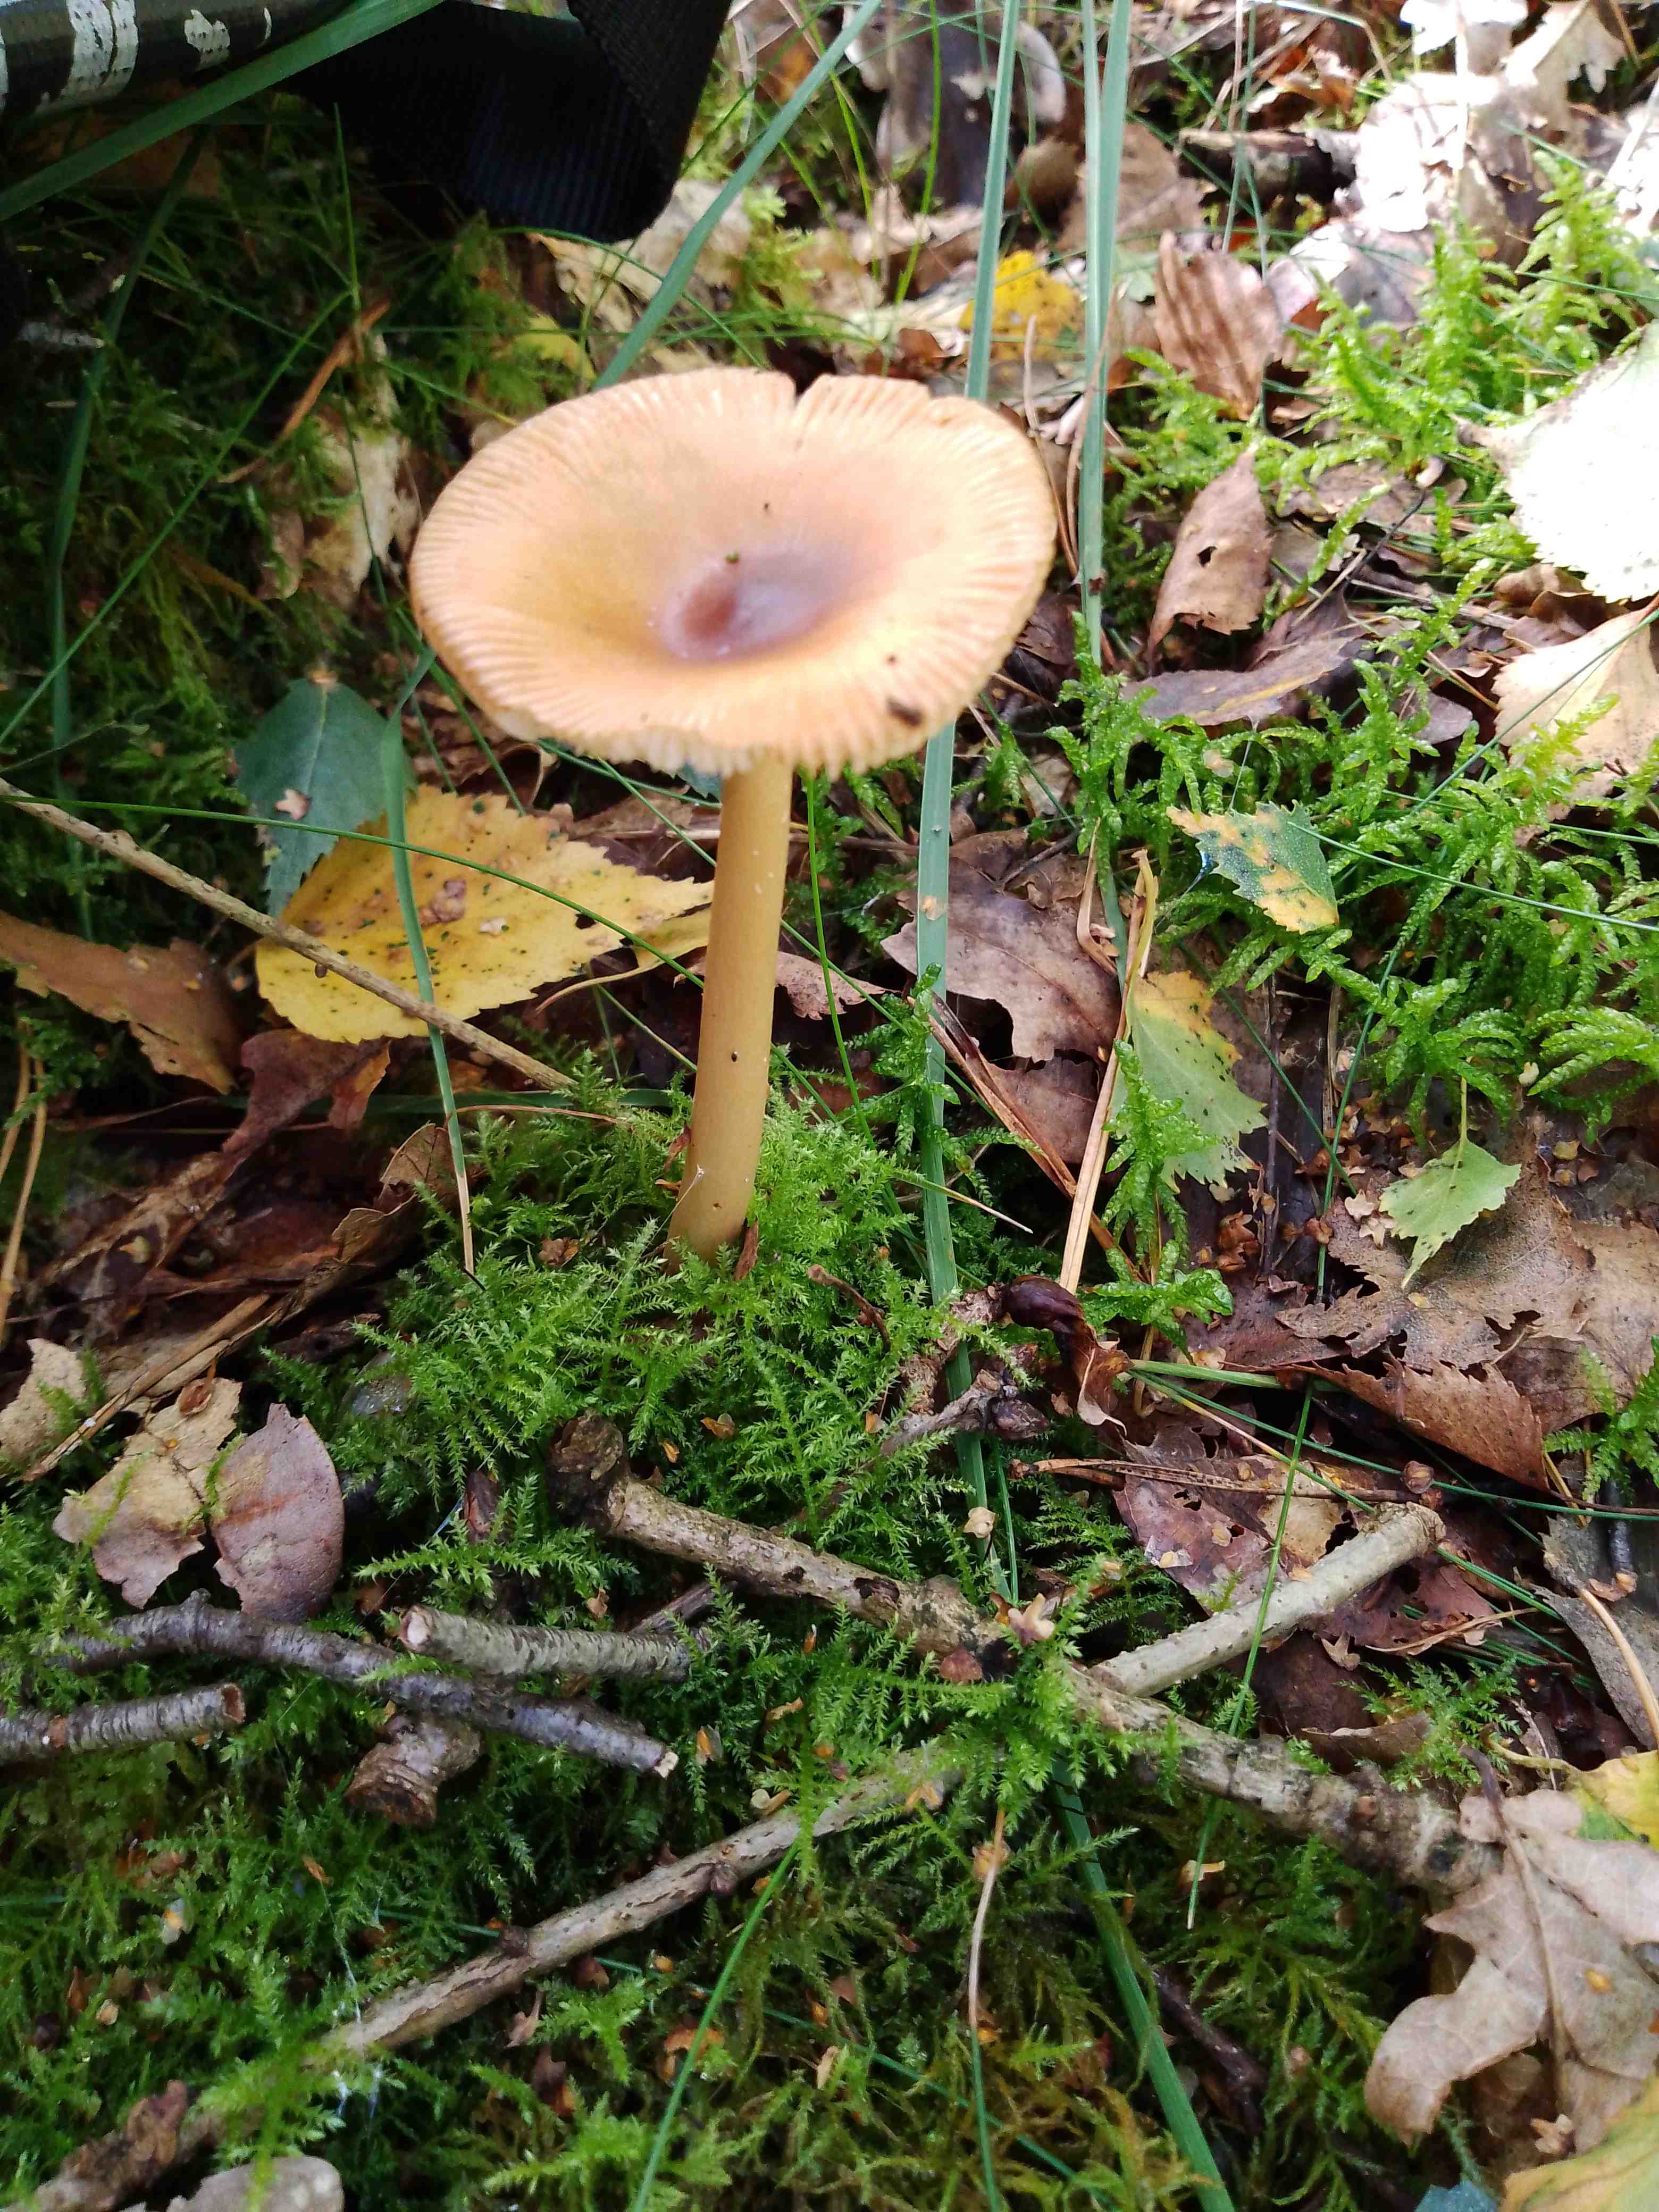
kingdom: Fungi
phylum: Basidiomycota
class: Agaricomycetes
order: Agaricales
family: Amanitaceae
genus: Amanita
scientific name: Amanita fulva
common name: brun kam-fluesvamp
